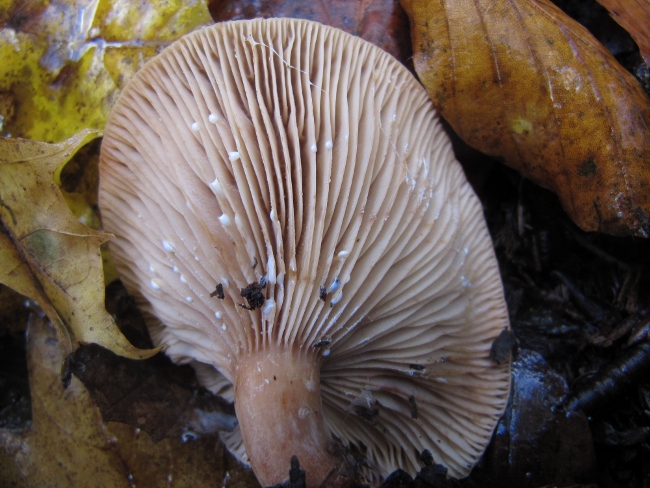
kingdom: Fungi
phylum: Basidiomycota
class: Agaricomycetes
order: Russulales
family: Russulaceae
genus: Lactarius
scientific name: Lactarius subdulcis
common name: sødlig mælkehat
